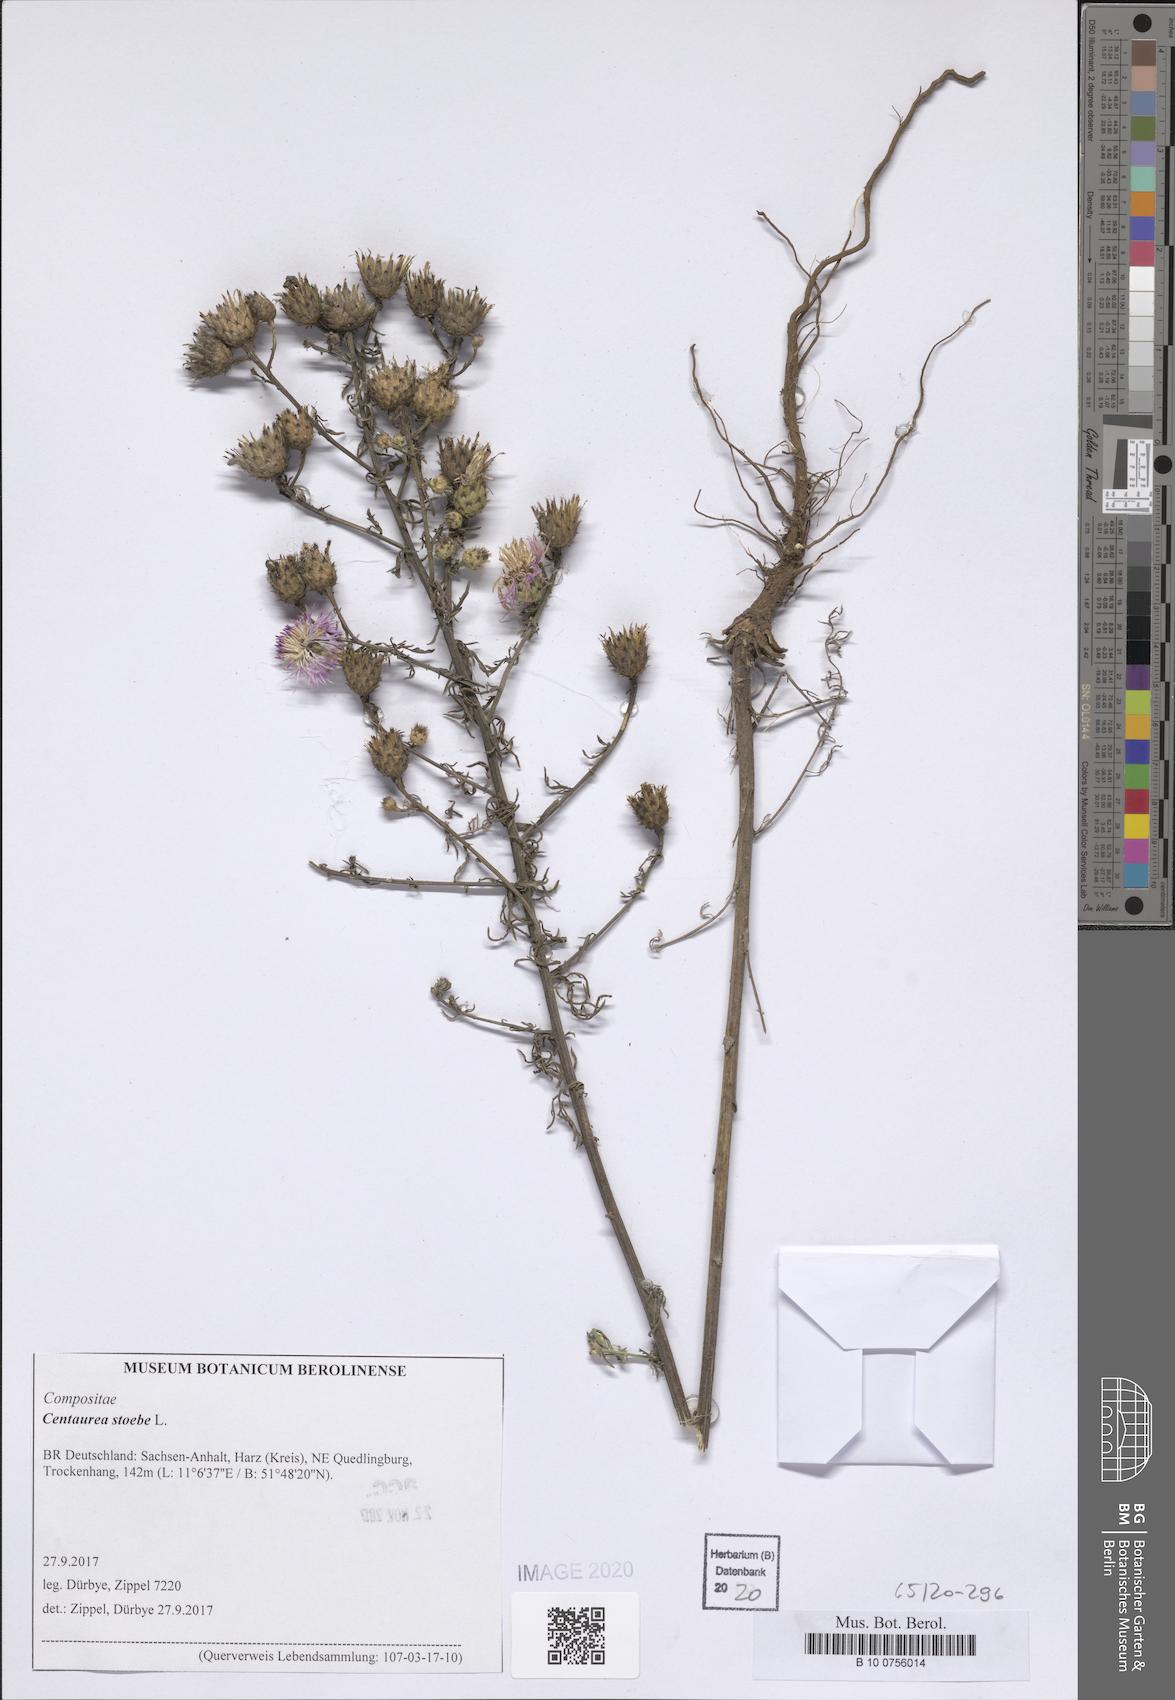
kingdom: Plantae
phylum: Tracheophyta
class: Magnoliopsida
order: Asterales
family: Asteraceae
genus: Centaurea
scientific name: Centaurea stoebe
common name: Spotted knapweed
